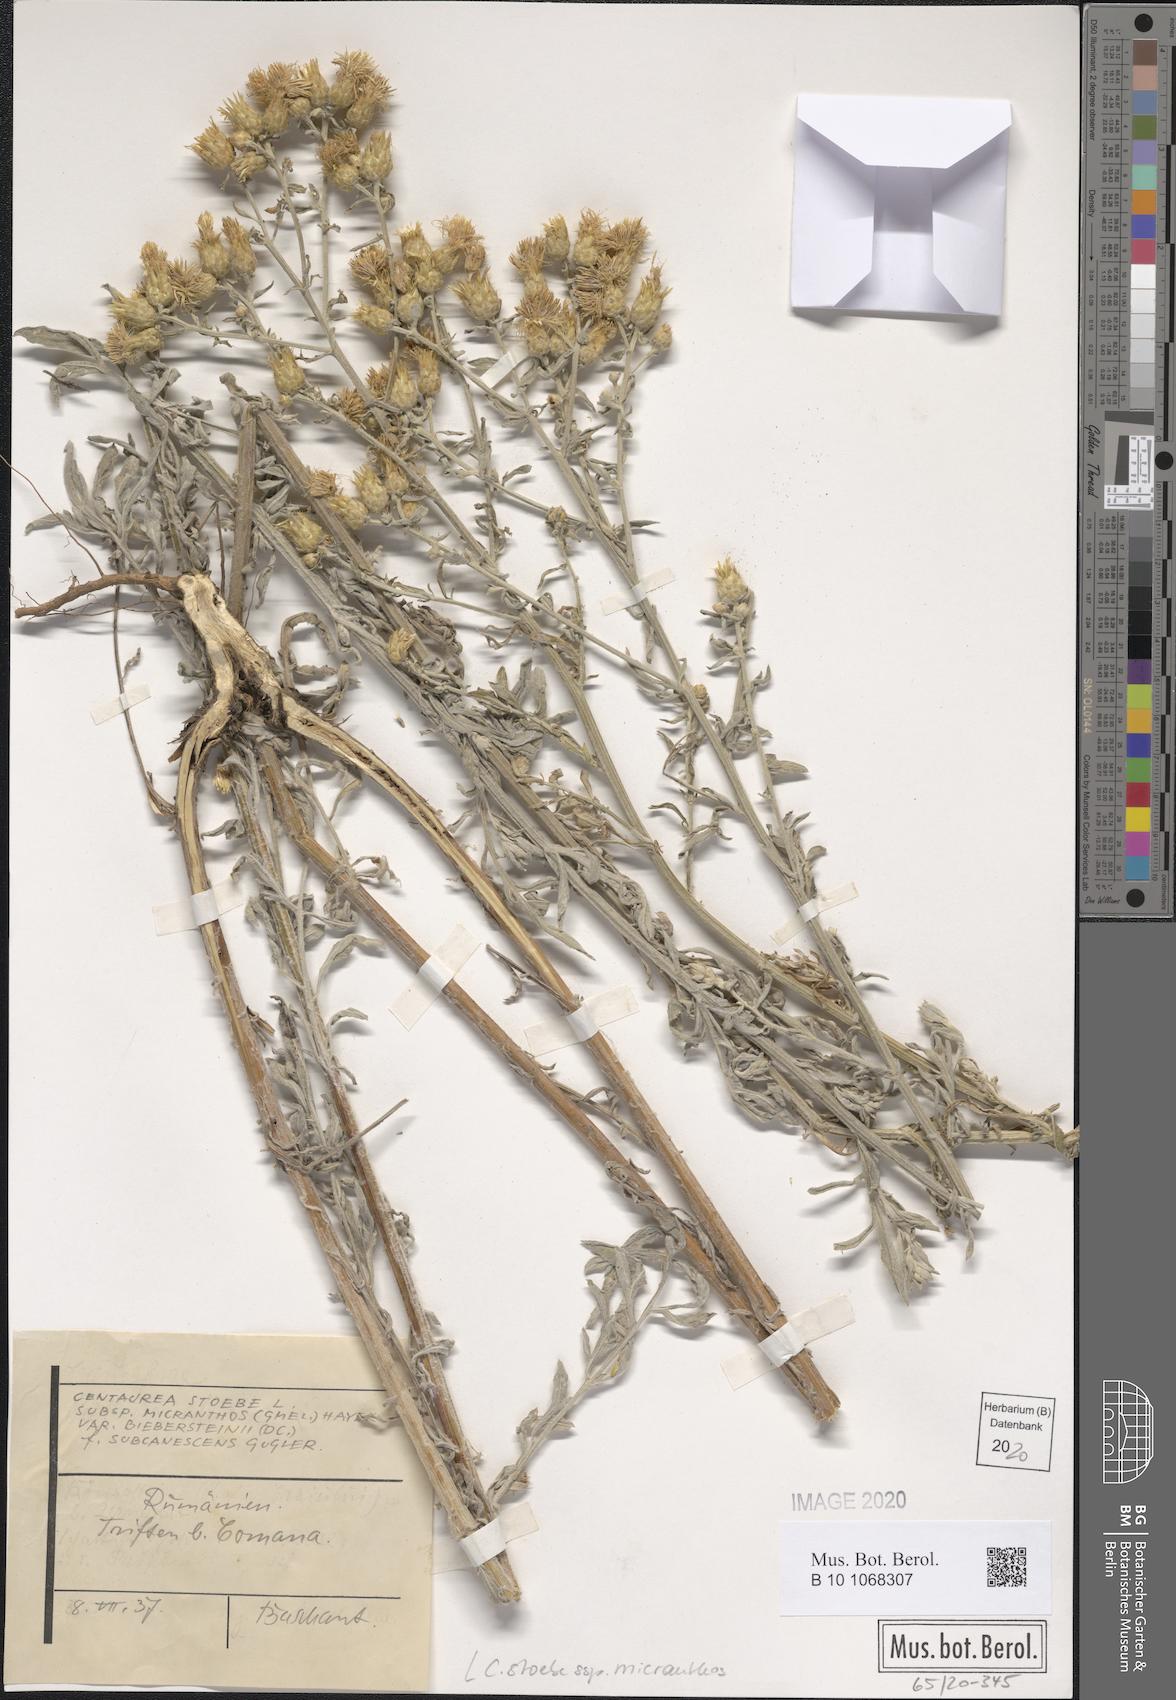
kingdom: Plantae
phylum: Tracheophyta
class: Magnoliopsida
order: Asterales
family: Asteraceae
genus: Centaurea
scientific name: Centaurea australis
